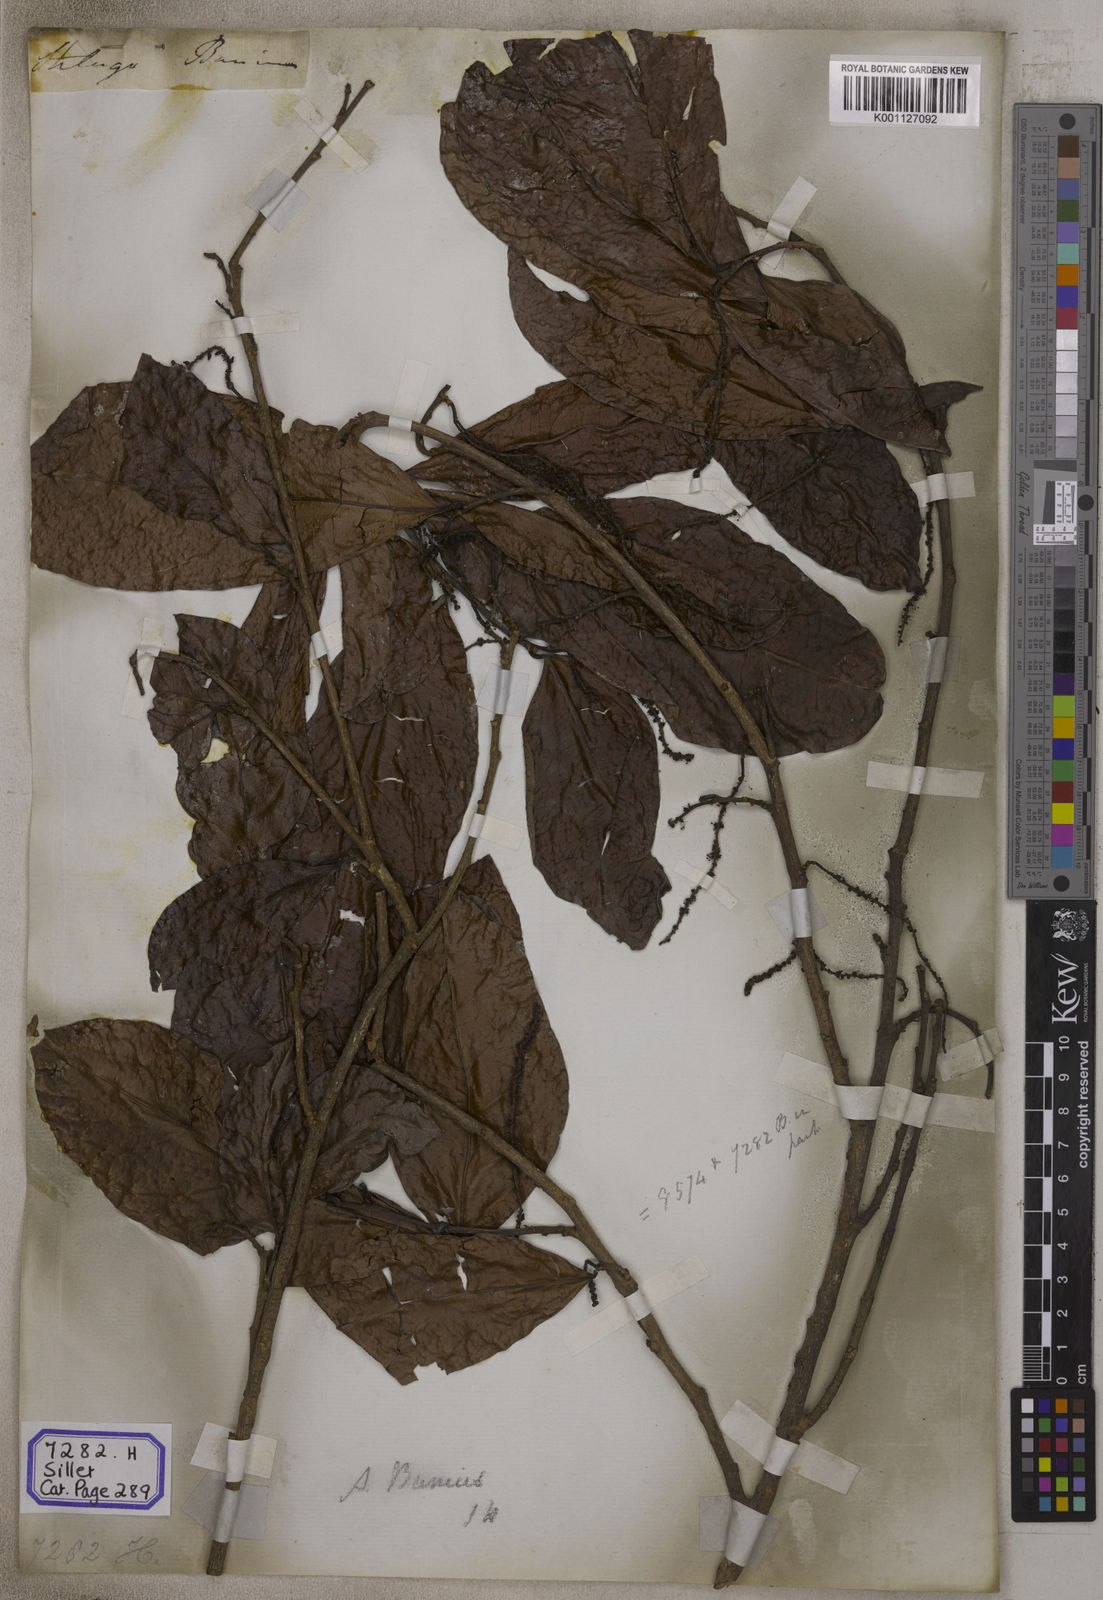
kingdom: Plantae
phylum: Tracheophyta
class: Magnoliopsida
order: Malpighiales
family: Phyllanthaceae
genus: Antidesma
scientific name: Antidesma nigricans
